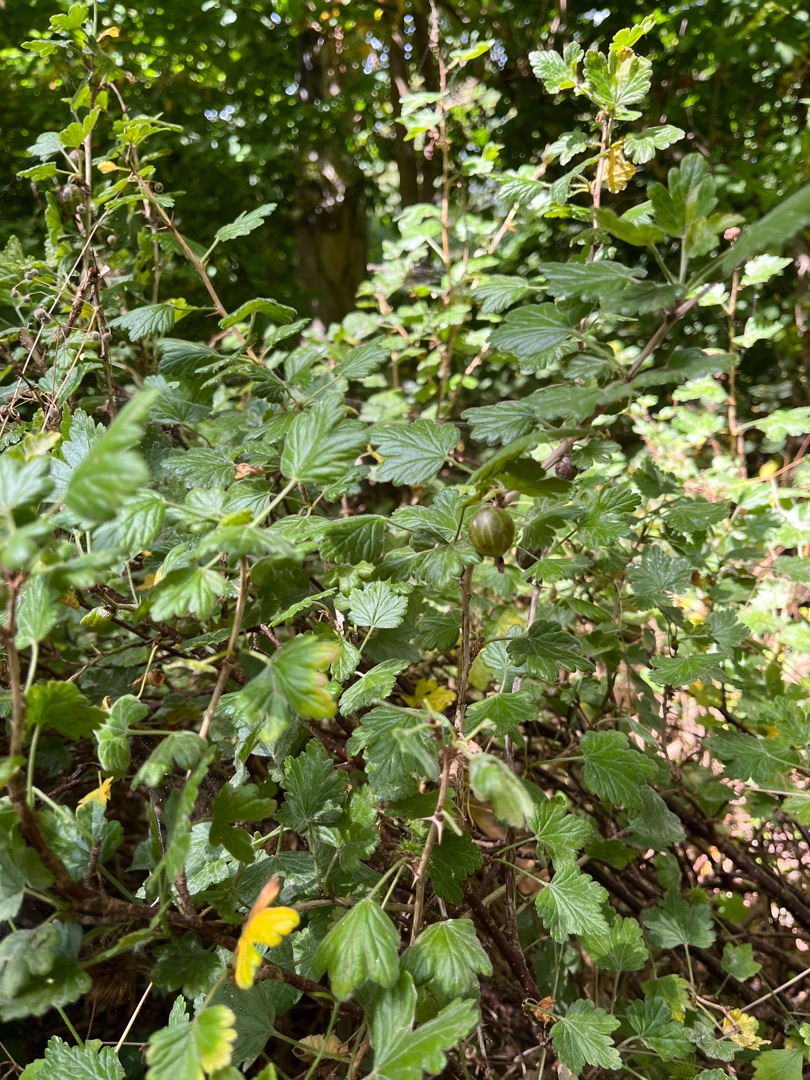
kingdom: Plantae
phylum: Tracheophyta
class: Magnoliopsida
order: Saxifragales
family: Grossulariaceae
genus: Ribes
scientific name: Ribes uva-crispa
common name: Stikkelsbær
